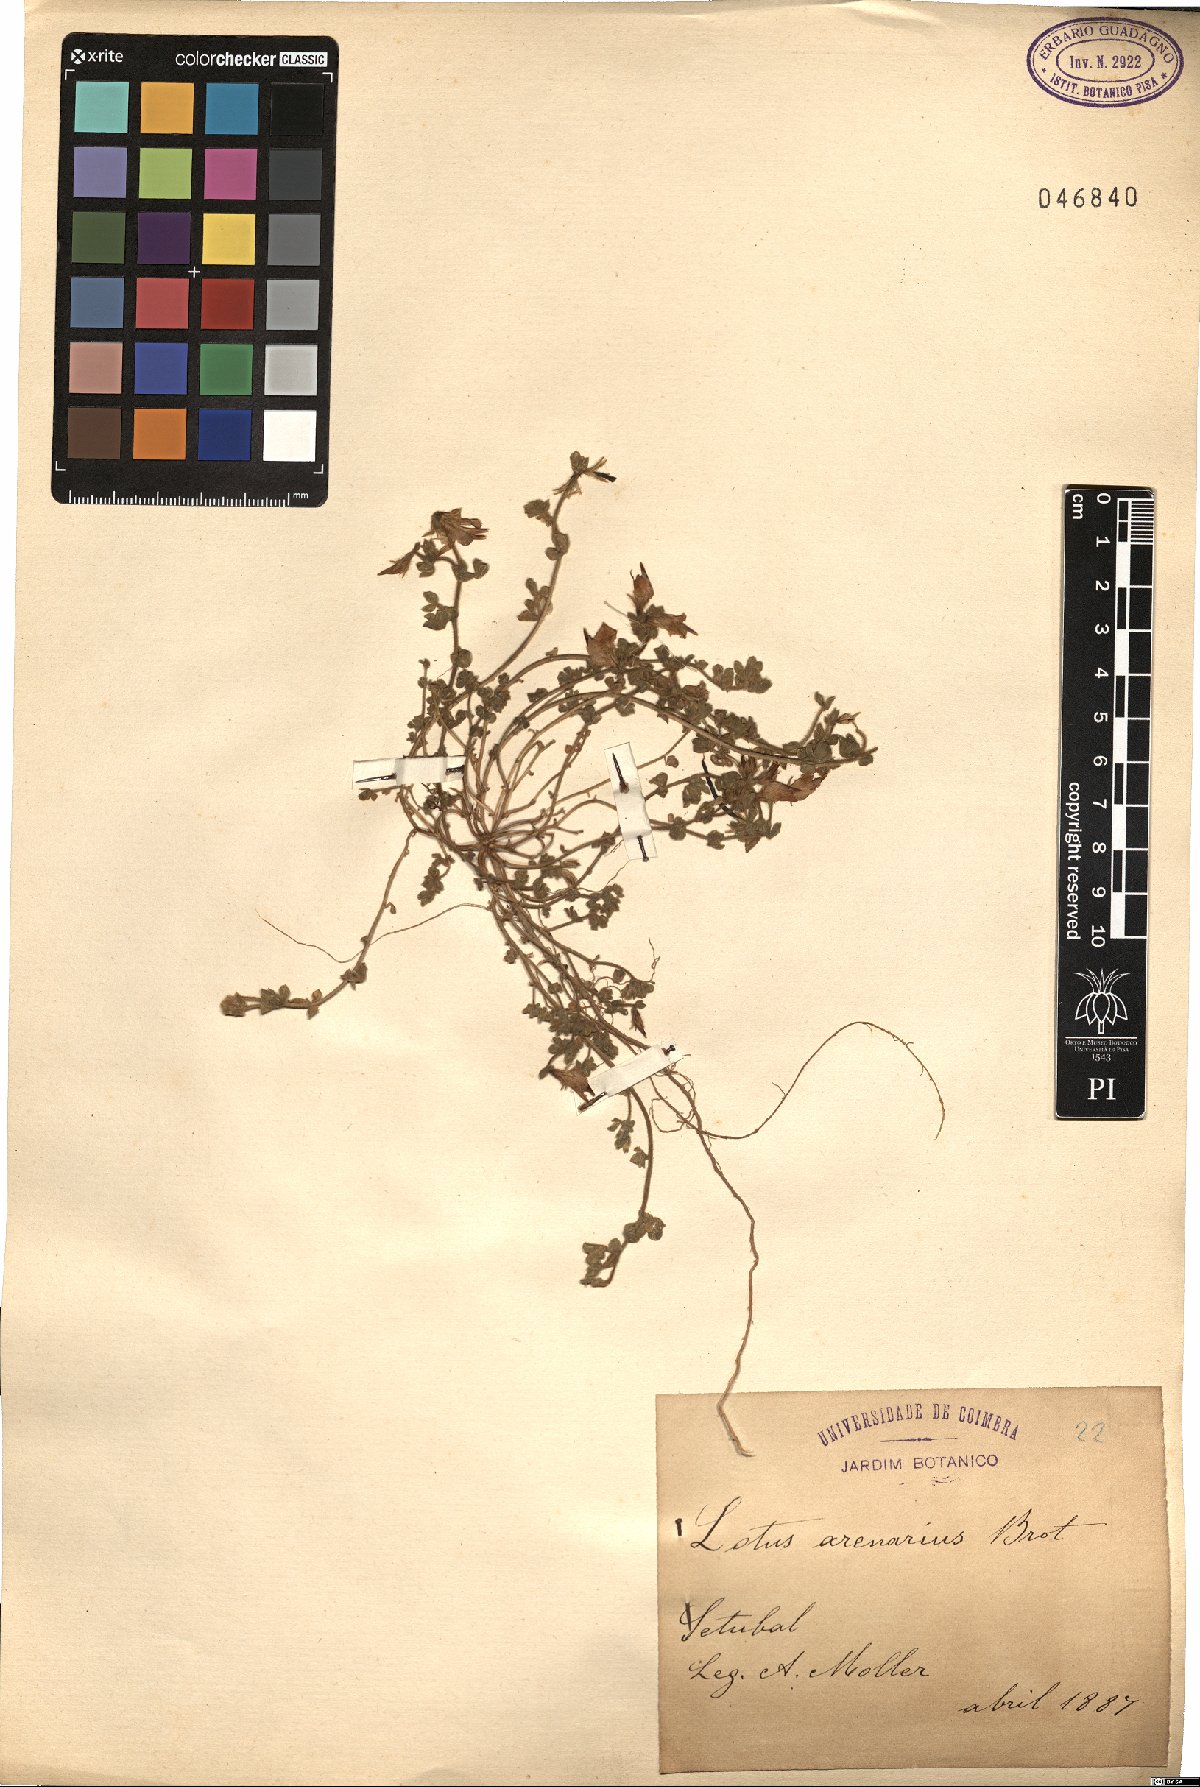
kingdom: Plantae
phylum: Tracheophyta
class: Magnoliopsida
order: Fabales
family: Fabaceae
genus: Lotus
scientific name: Lotus arenarius
